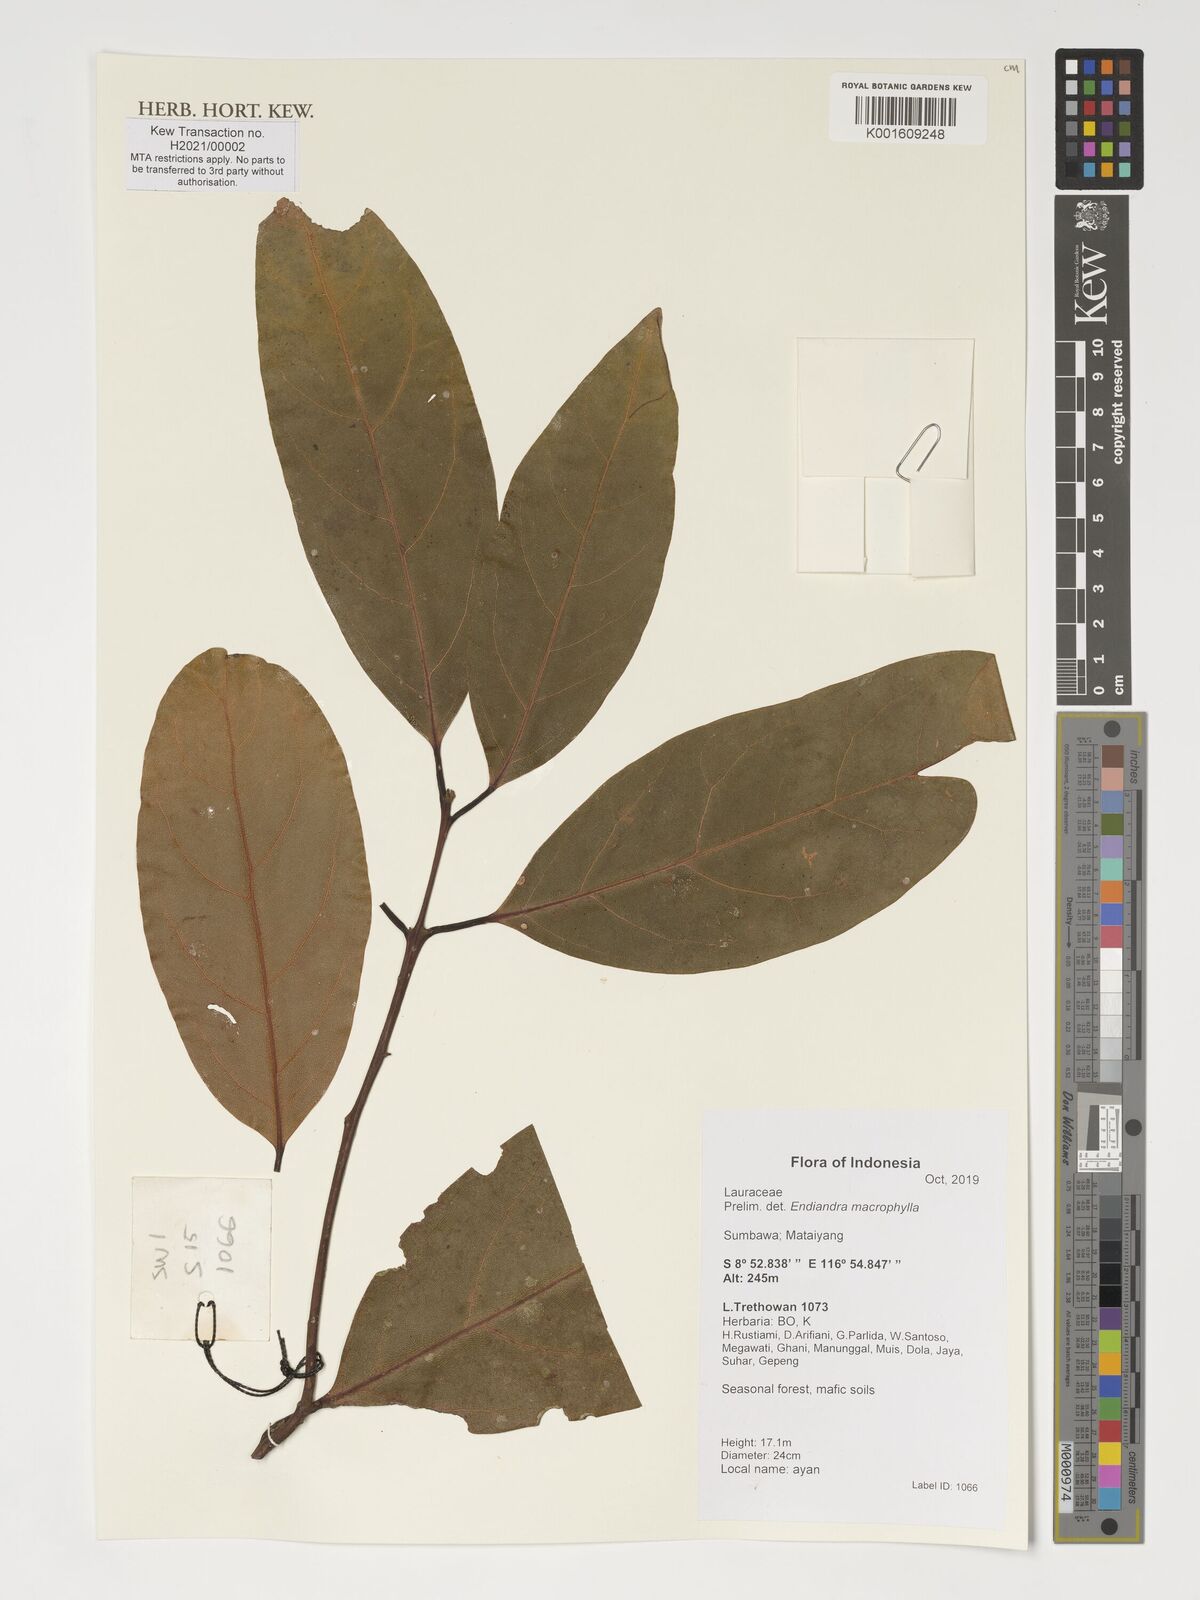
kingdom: Plantae
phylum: Tracheophyta
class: Magnoliopsida
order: Laurales
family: Lauraceae
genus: Endiandra
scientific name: Endiandra macrophylla
